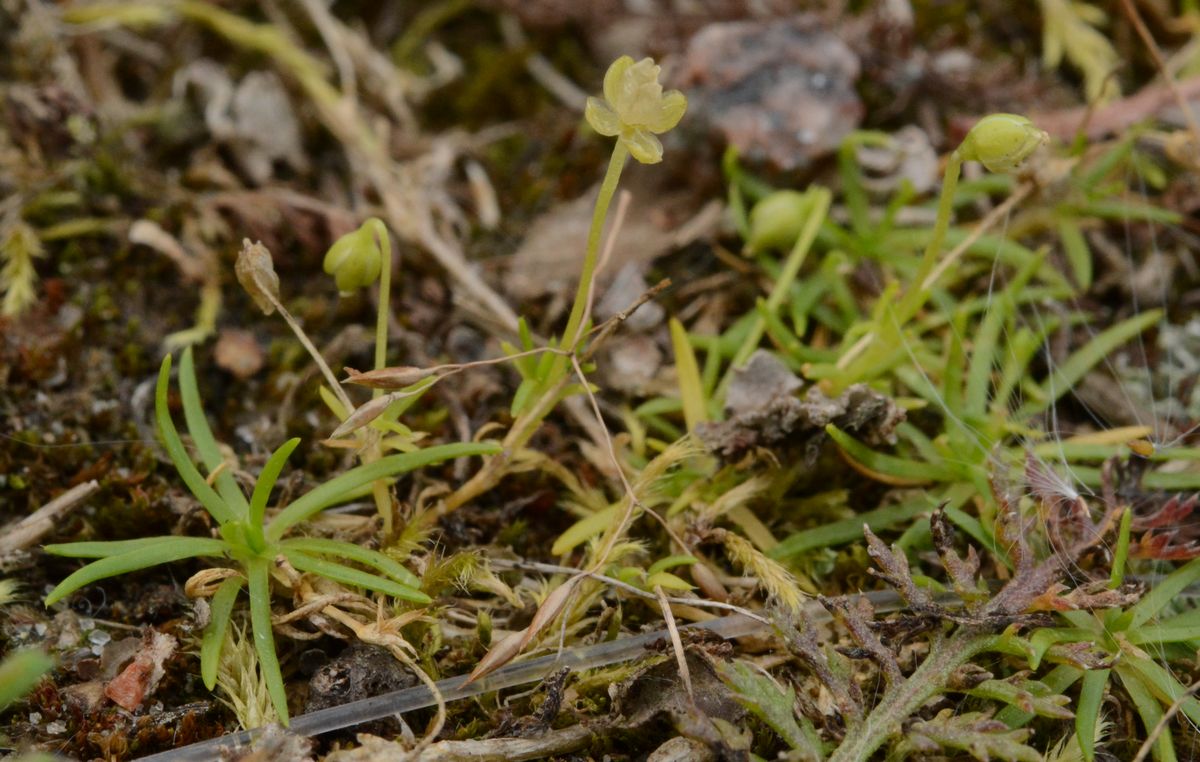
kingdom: Plantae
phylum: Tracheophyta
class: Magnoliopsida
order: Caryophyllales
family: Caryophyllaceae
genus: Sagina
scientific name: Sagina procumbens
